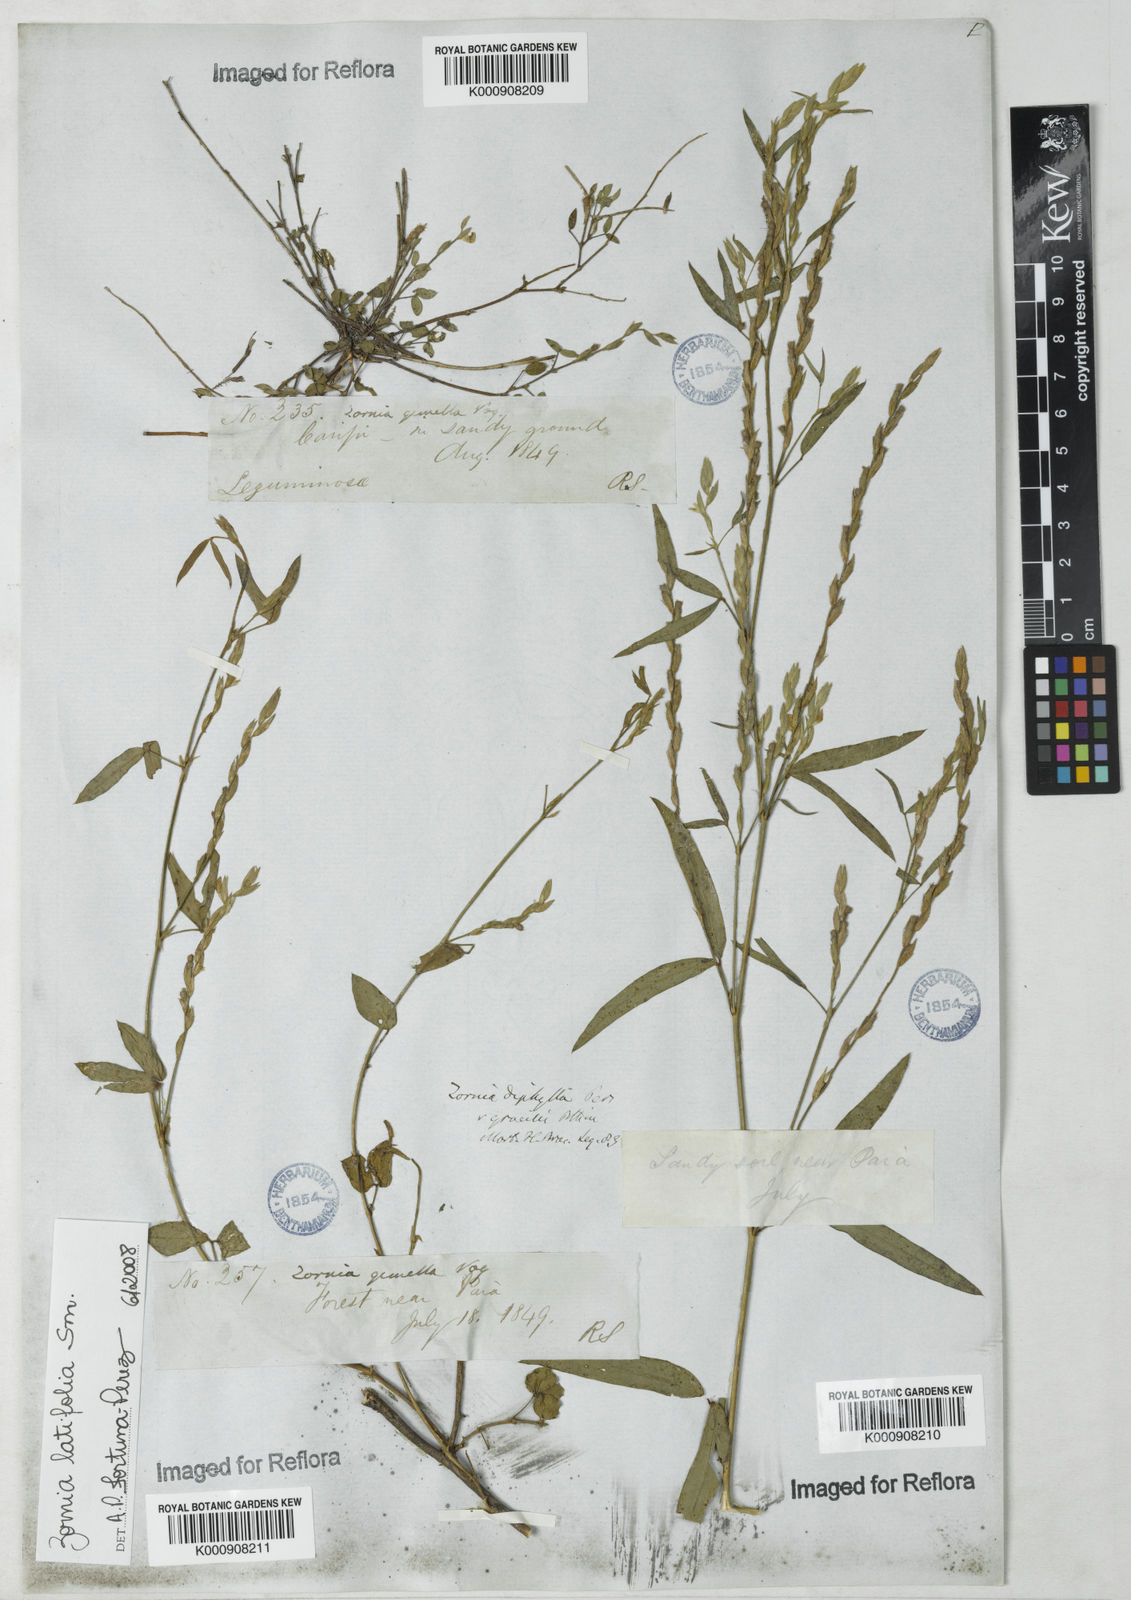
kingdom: Plantae
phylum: Tracheophyta
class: Magnoliopsida
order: Fabales
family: Fabaceae
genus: Zornia
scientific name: Zornia
